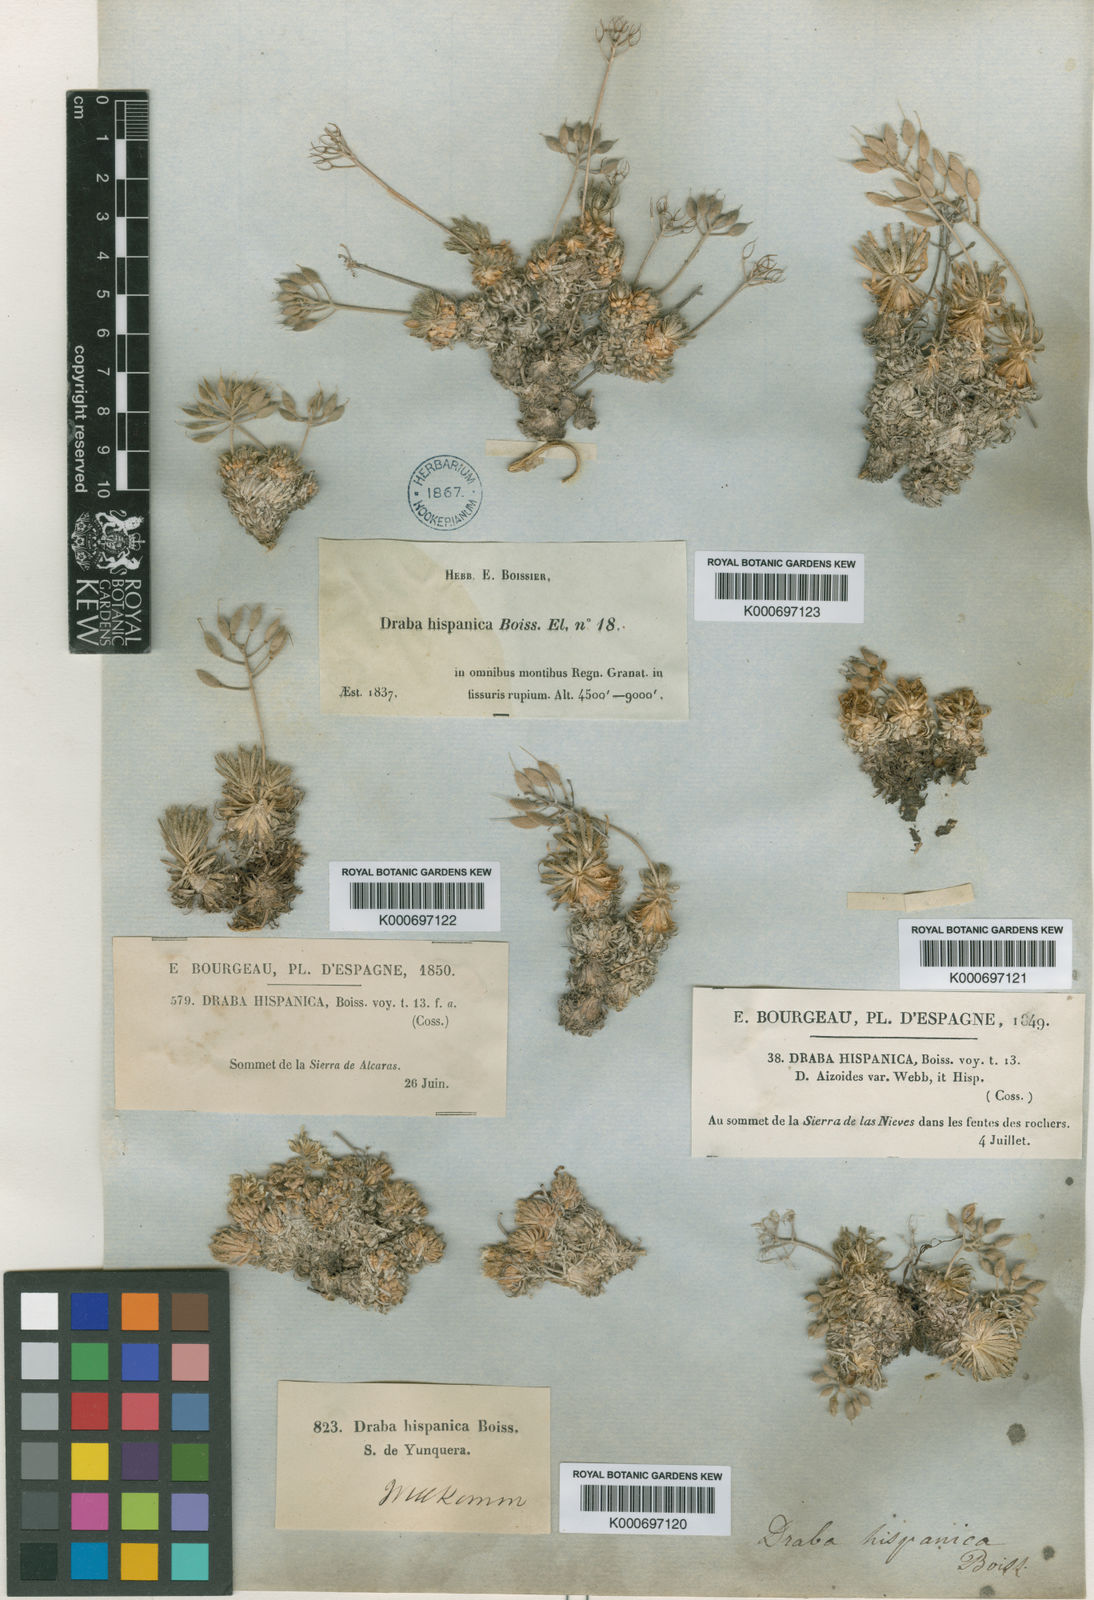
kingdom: Plantae
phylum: Tracheophyta
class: Magnoliopsida
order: Brassicales
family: Brassicaceae
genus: Draba
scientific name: Draba hispanica
